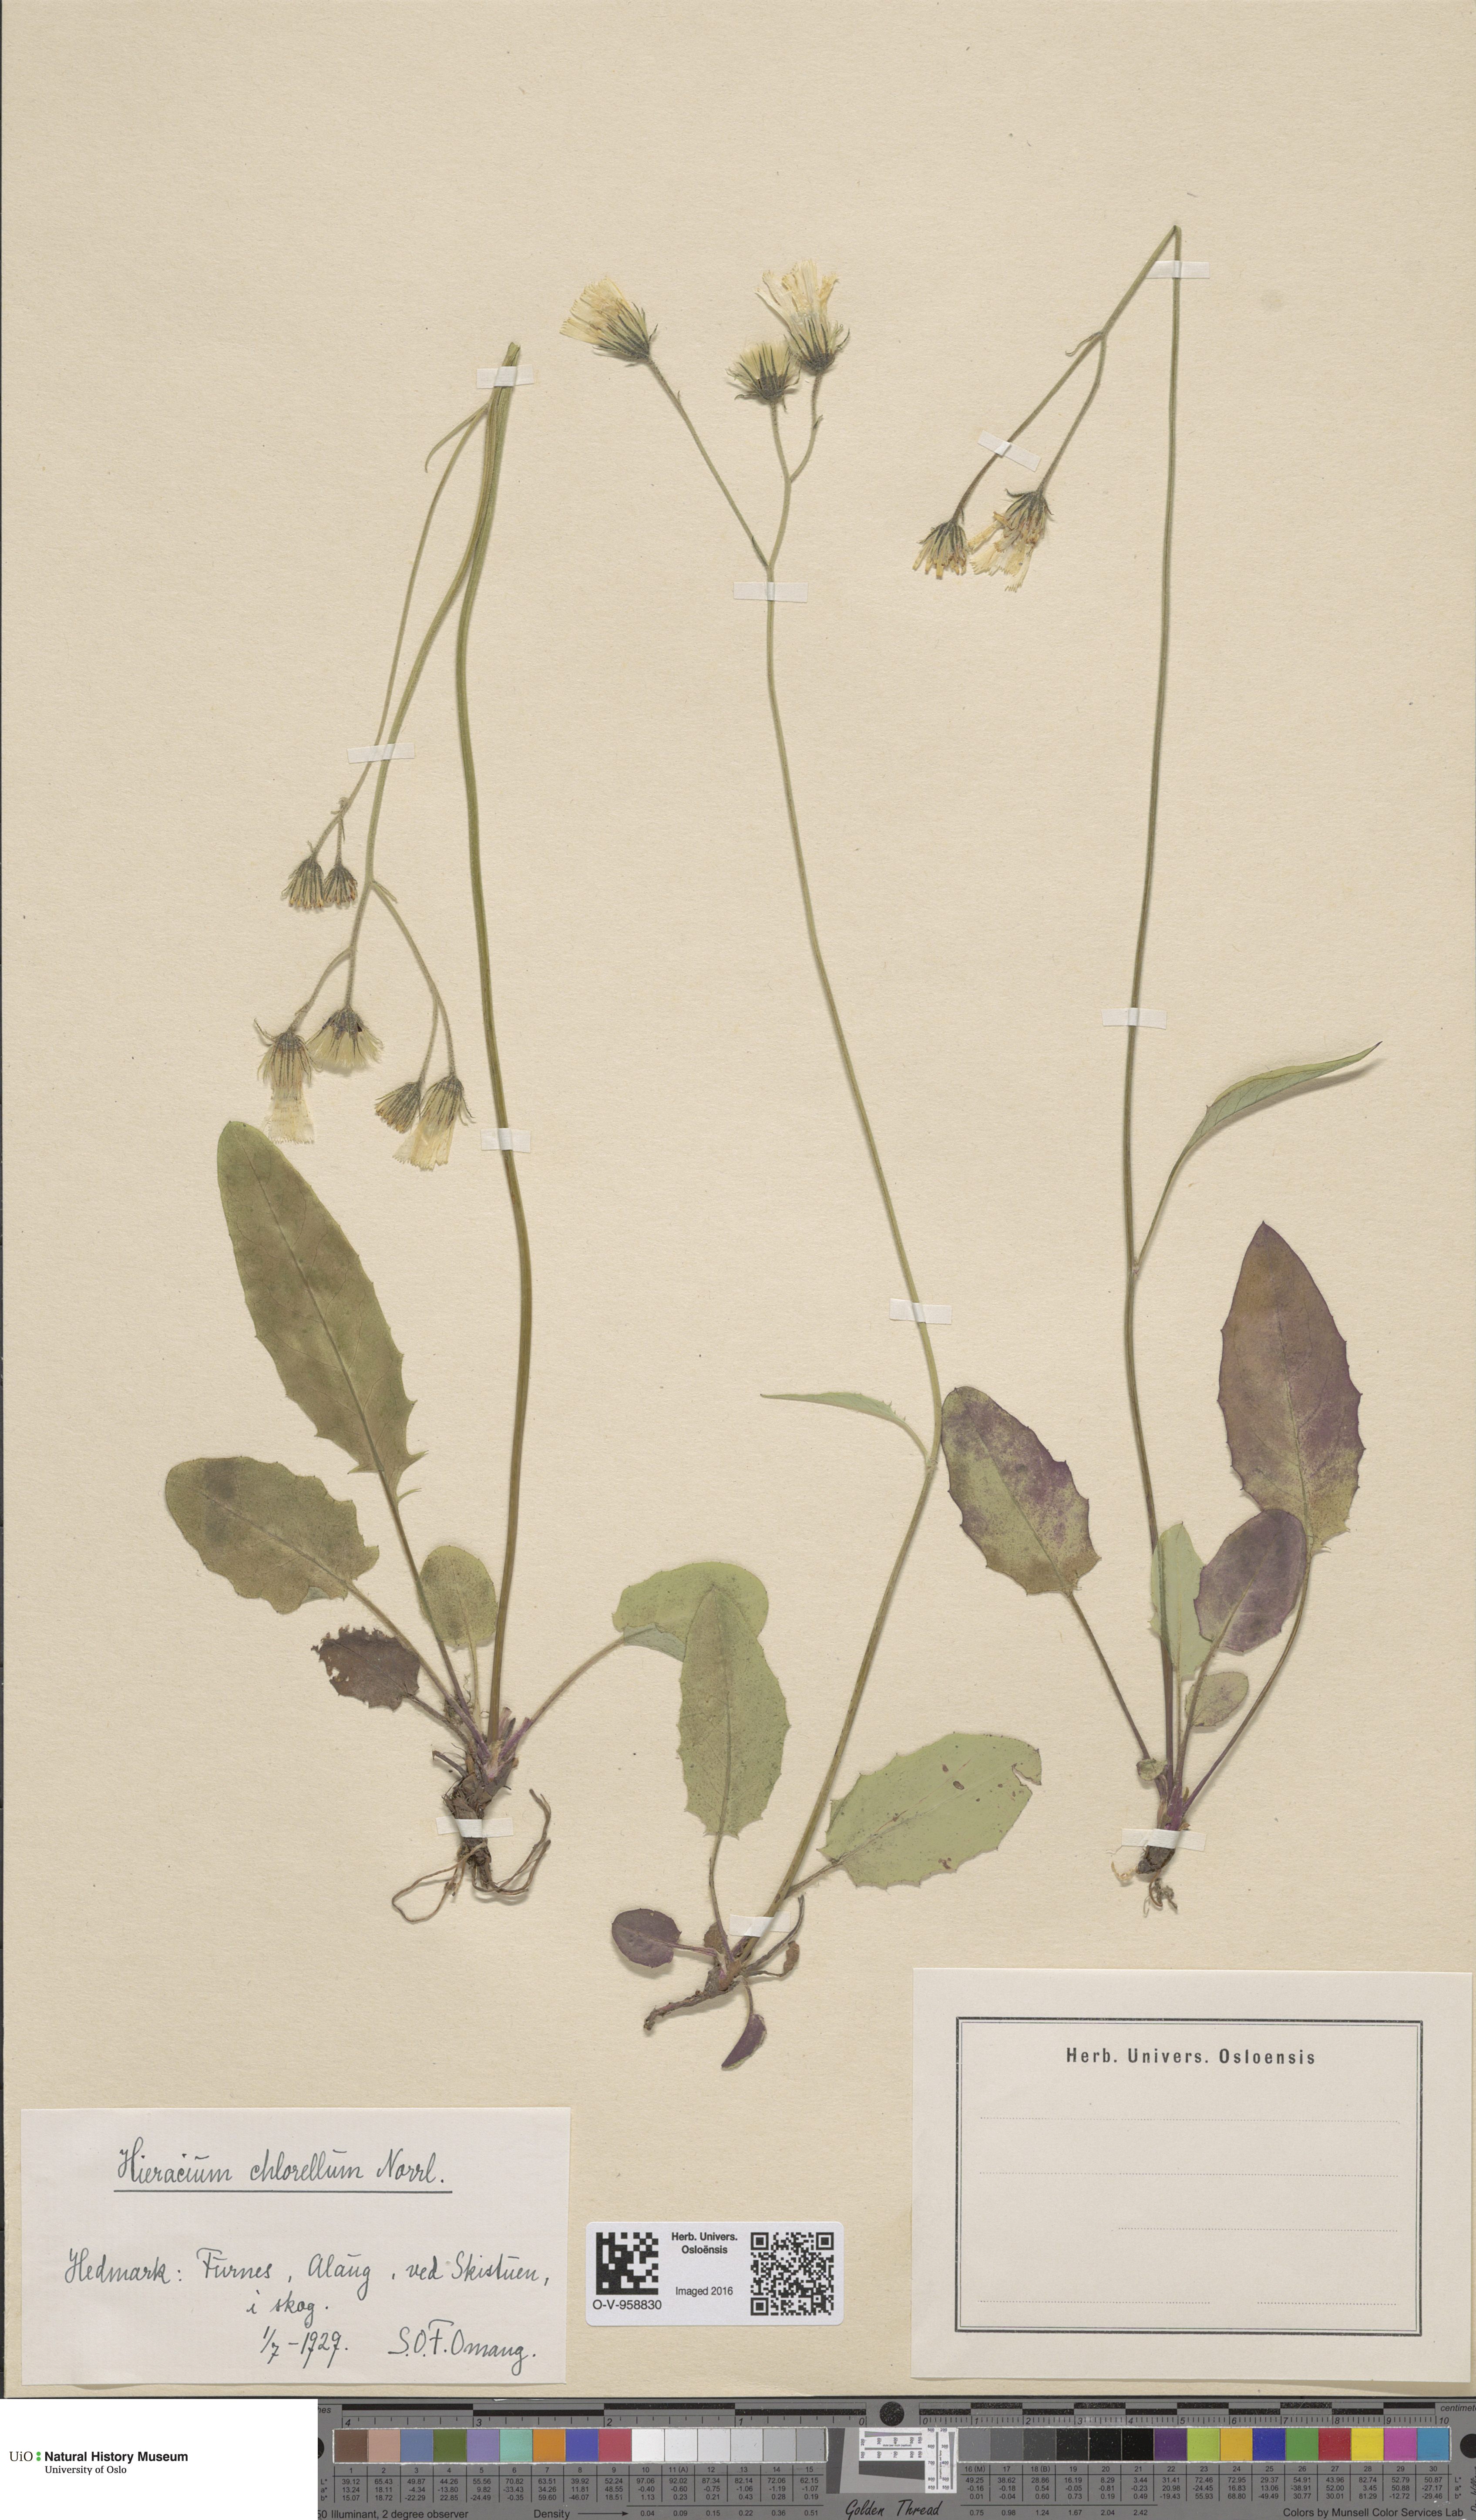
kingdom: Plantae
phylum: Tracheophyta
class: Magnoliopsida
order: Asterales
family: Asteraceae
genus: Hieracium
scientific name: Hieracium chlorellum
